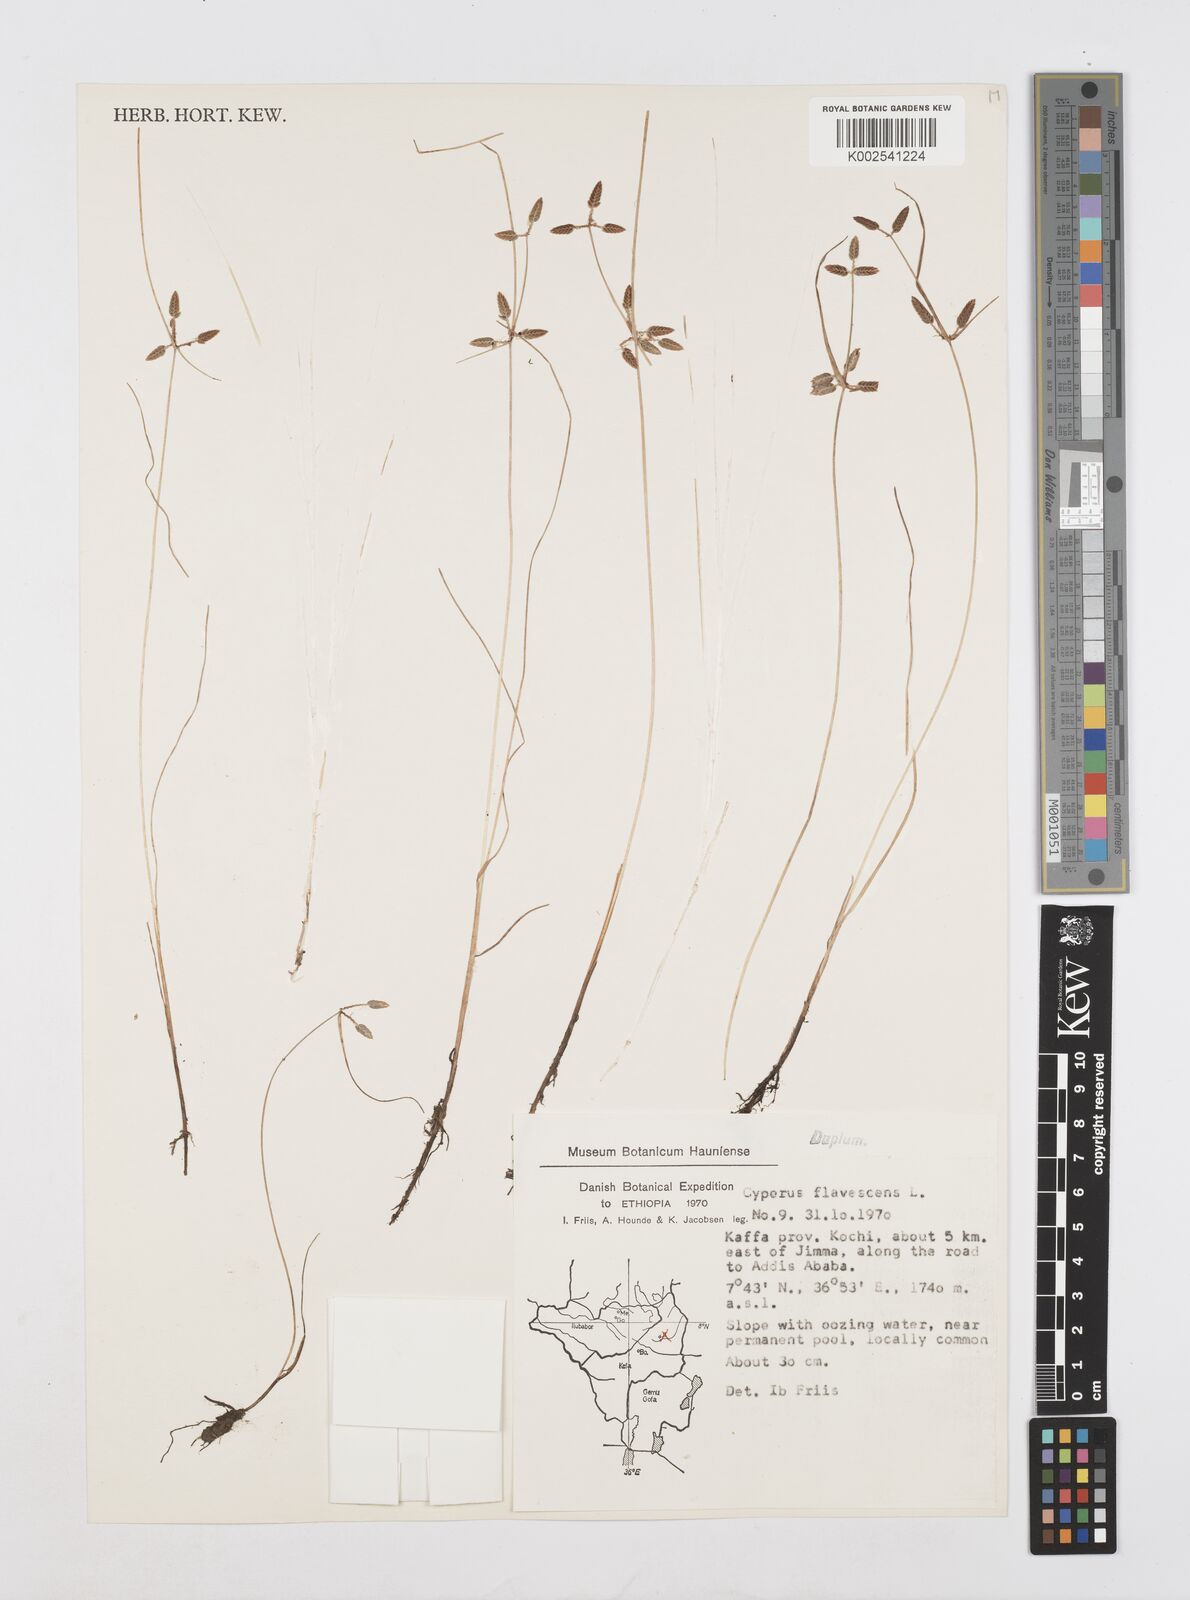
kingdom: Plantae
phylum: Tracheophyta
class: Liliopsida
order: Poales
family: Cyperaceae
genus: Cyperus
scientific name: Cyperus flavescens
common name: Yellow galingale
